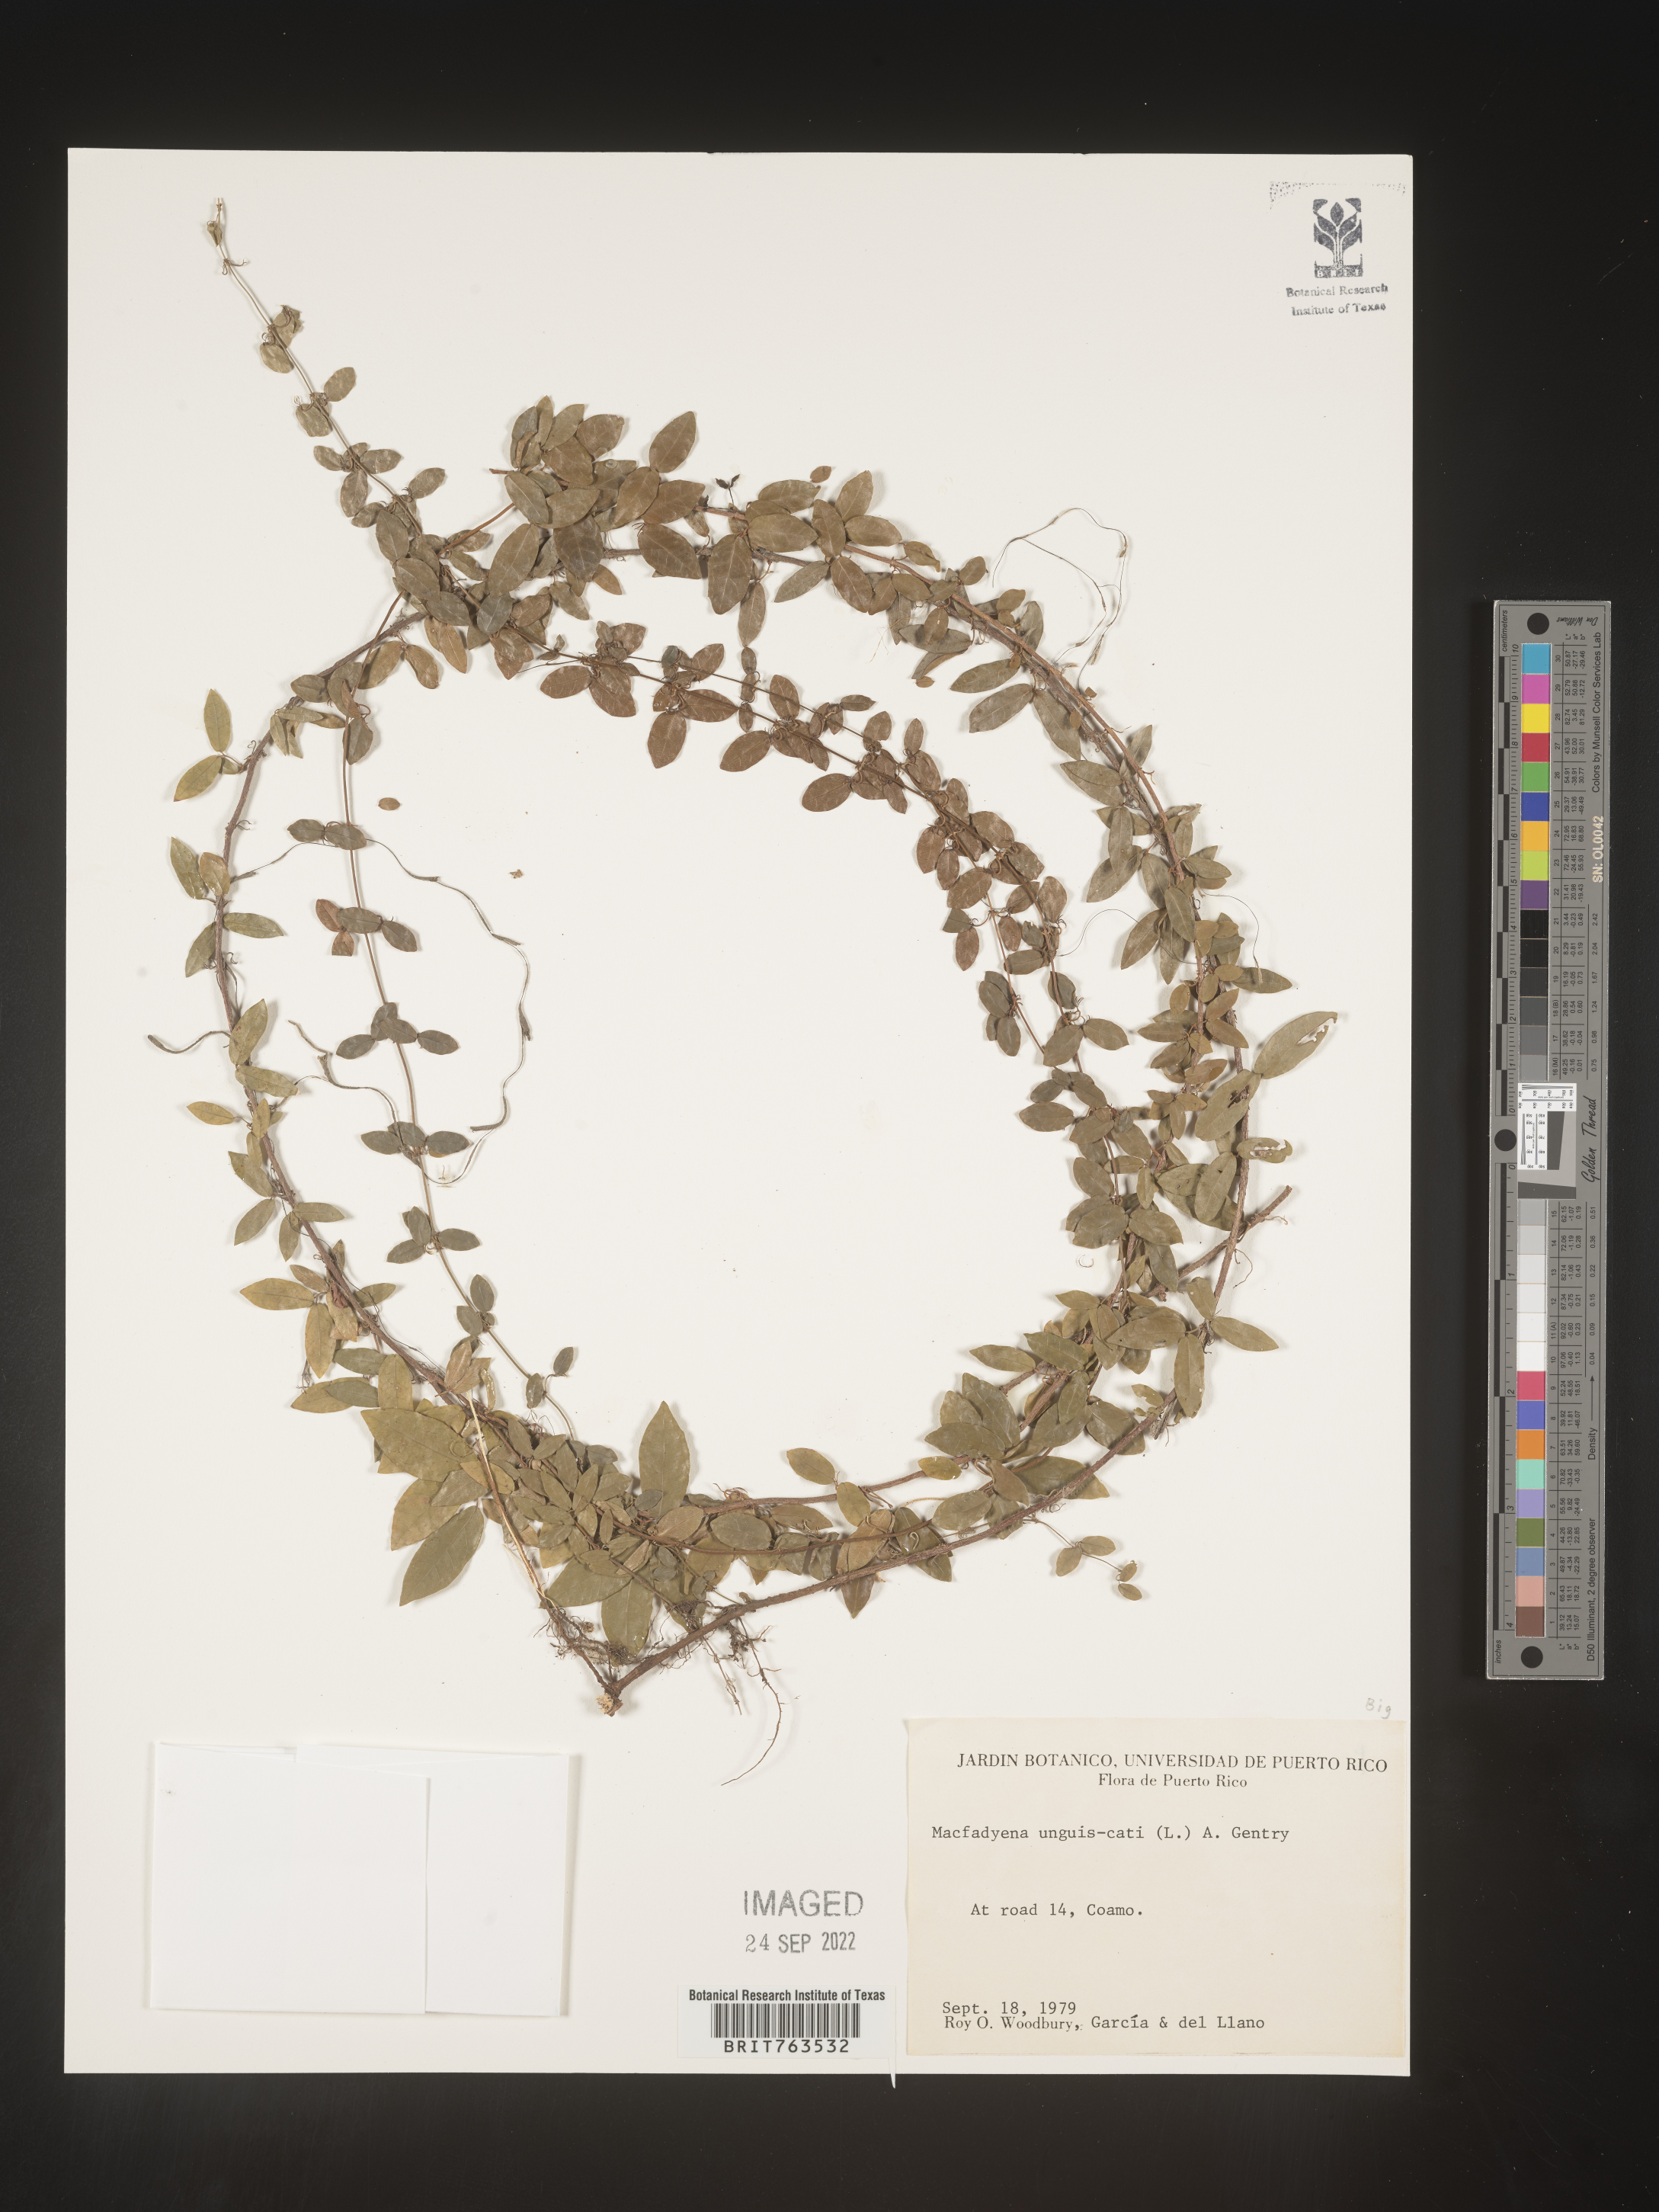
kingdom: Animalia
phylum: Chordata
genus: Macfadyena
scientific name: Macfadyena
